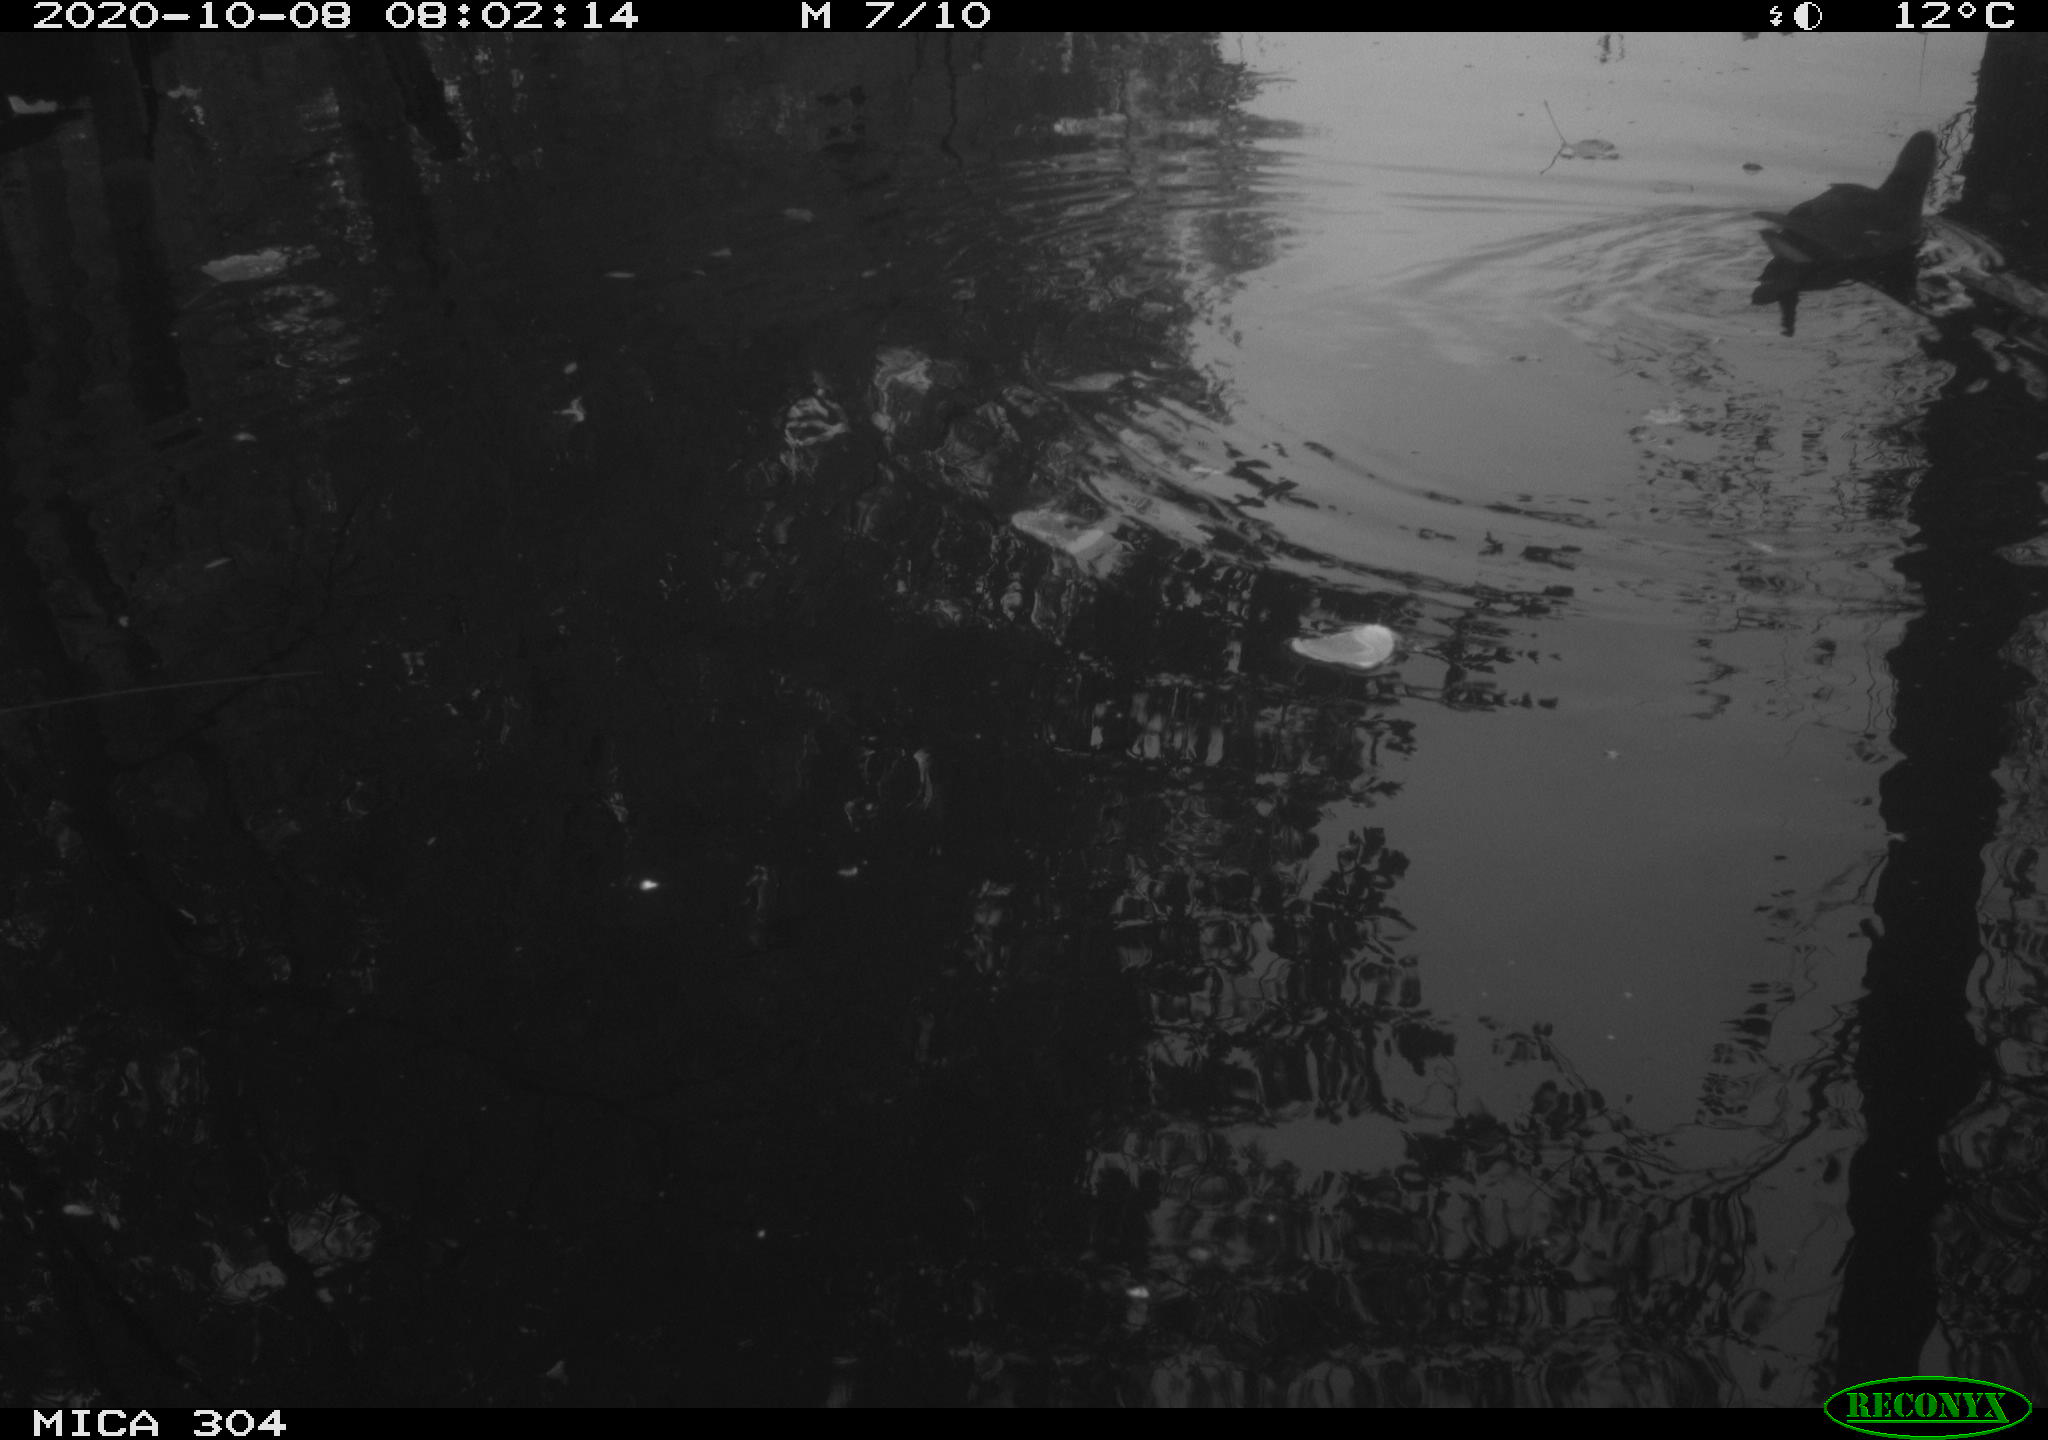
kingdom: Animalia
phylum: Chordata
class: Aves
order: Gruiformes
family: Rallidae
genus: Gallinula
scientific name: Gallinula chloropus
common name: Common moorhen
